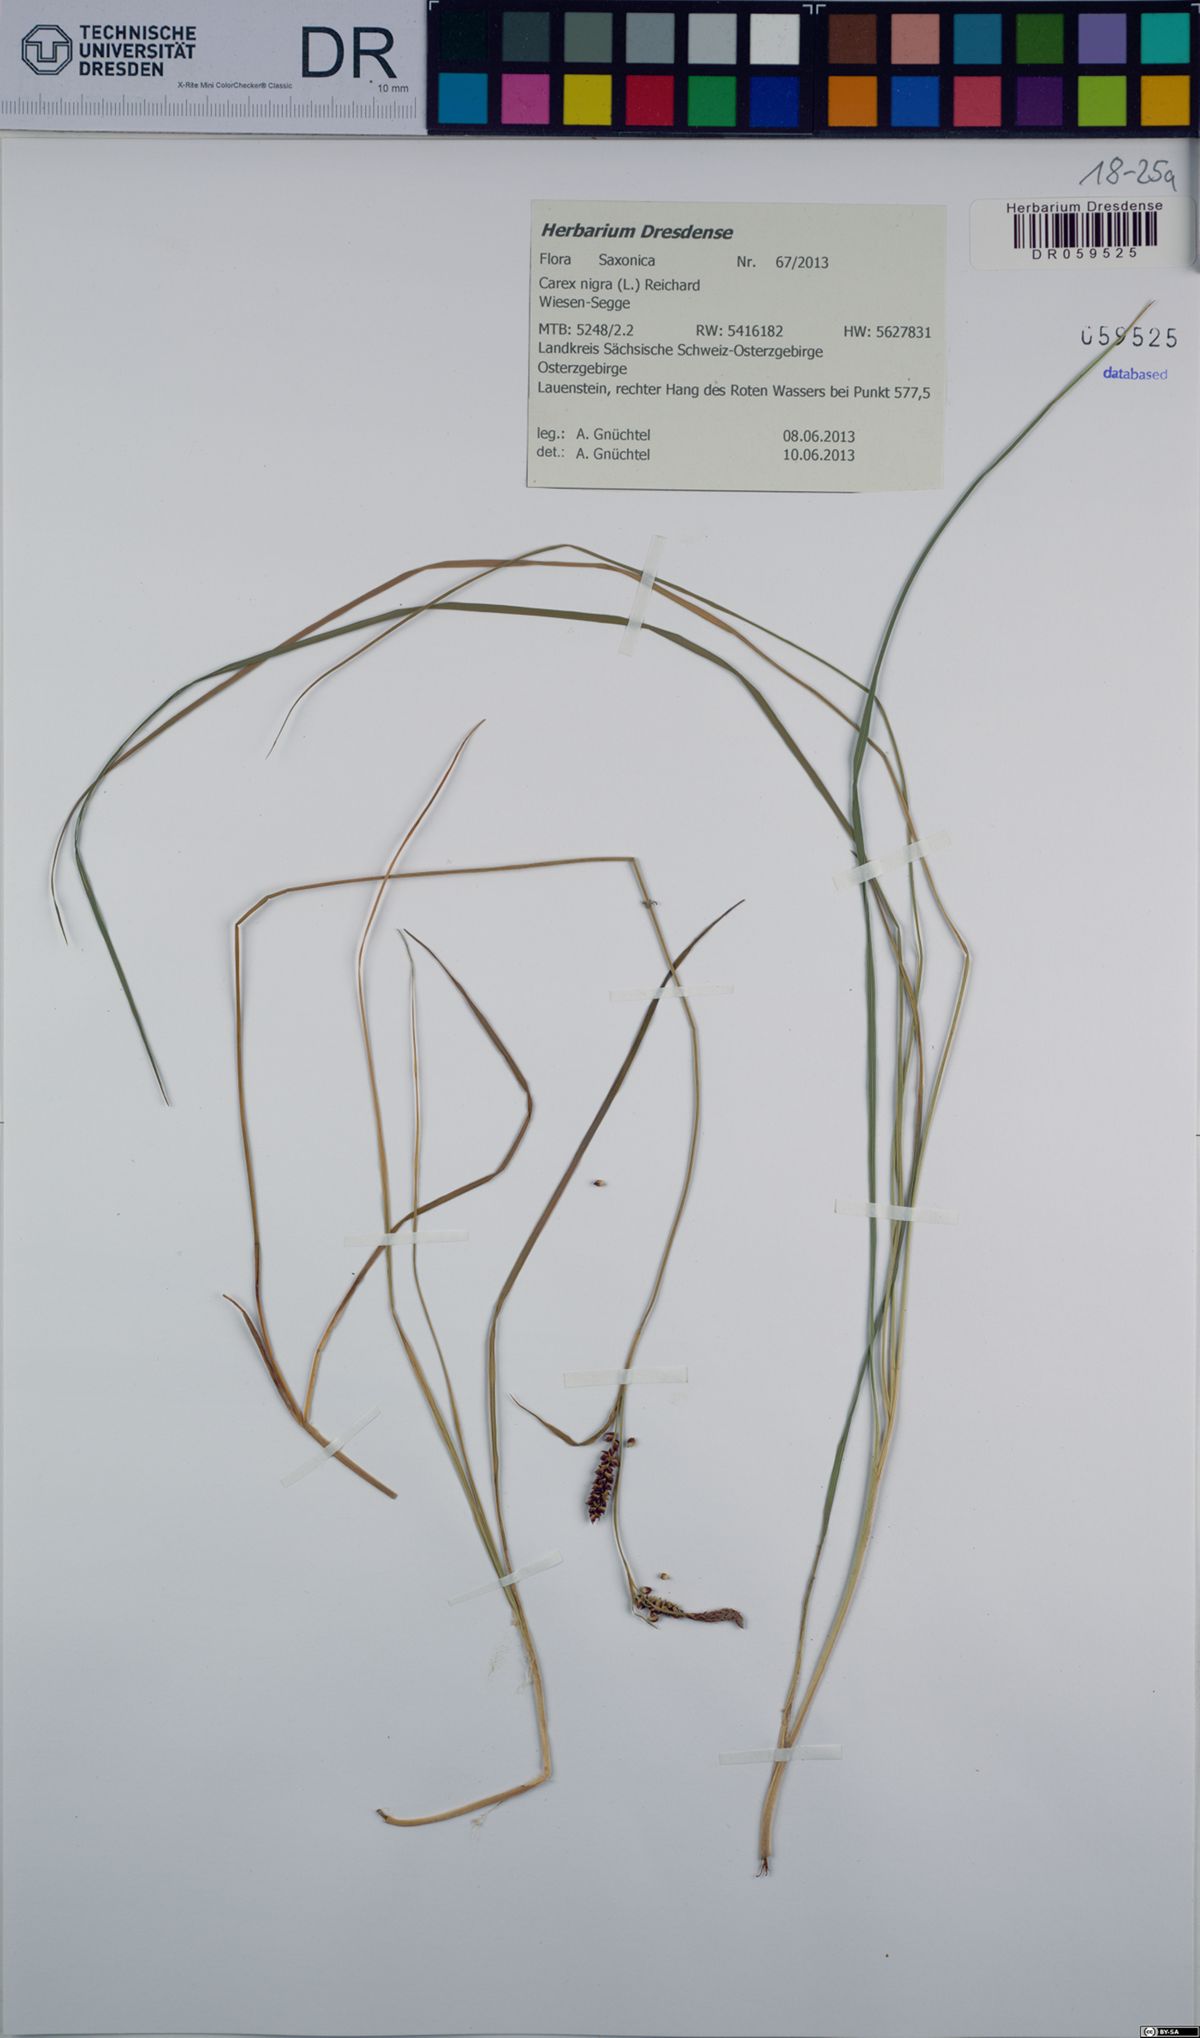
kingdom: Plantae
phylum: Tracheophyta
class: Liliopsida
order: Poales
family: Cyperaceae
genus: Carex
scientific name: Carex nigra
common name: Common sedge
